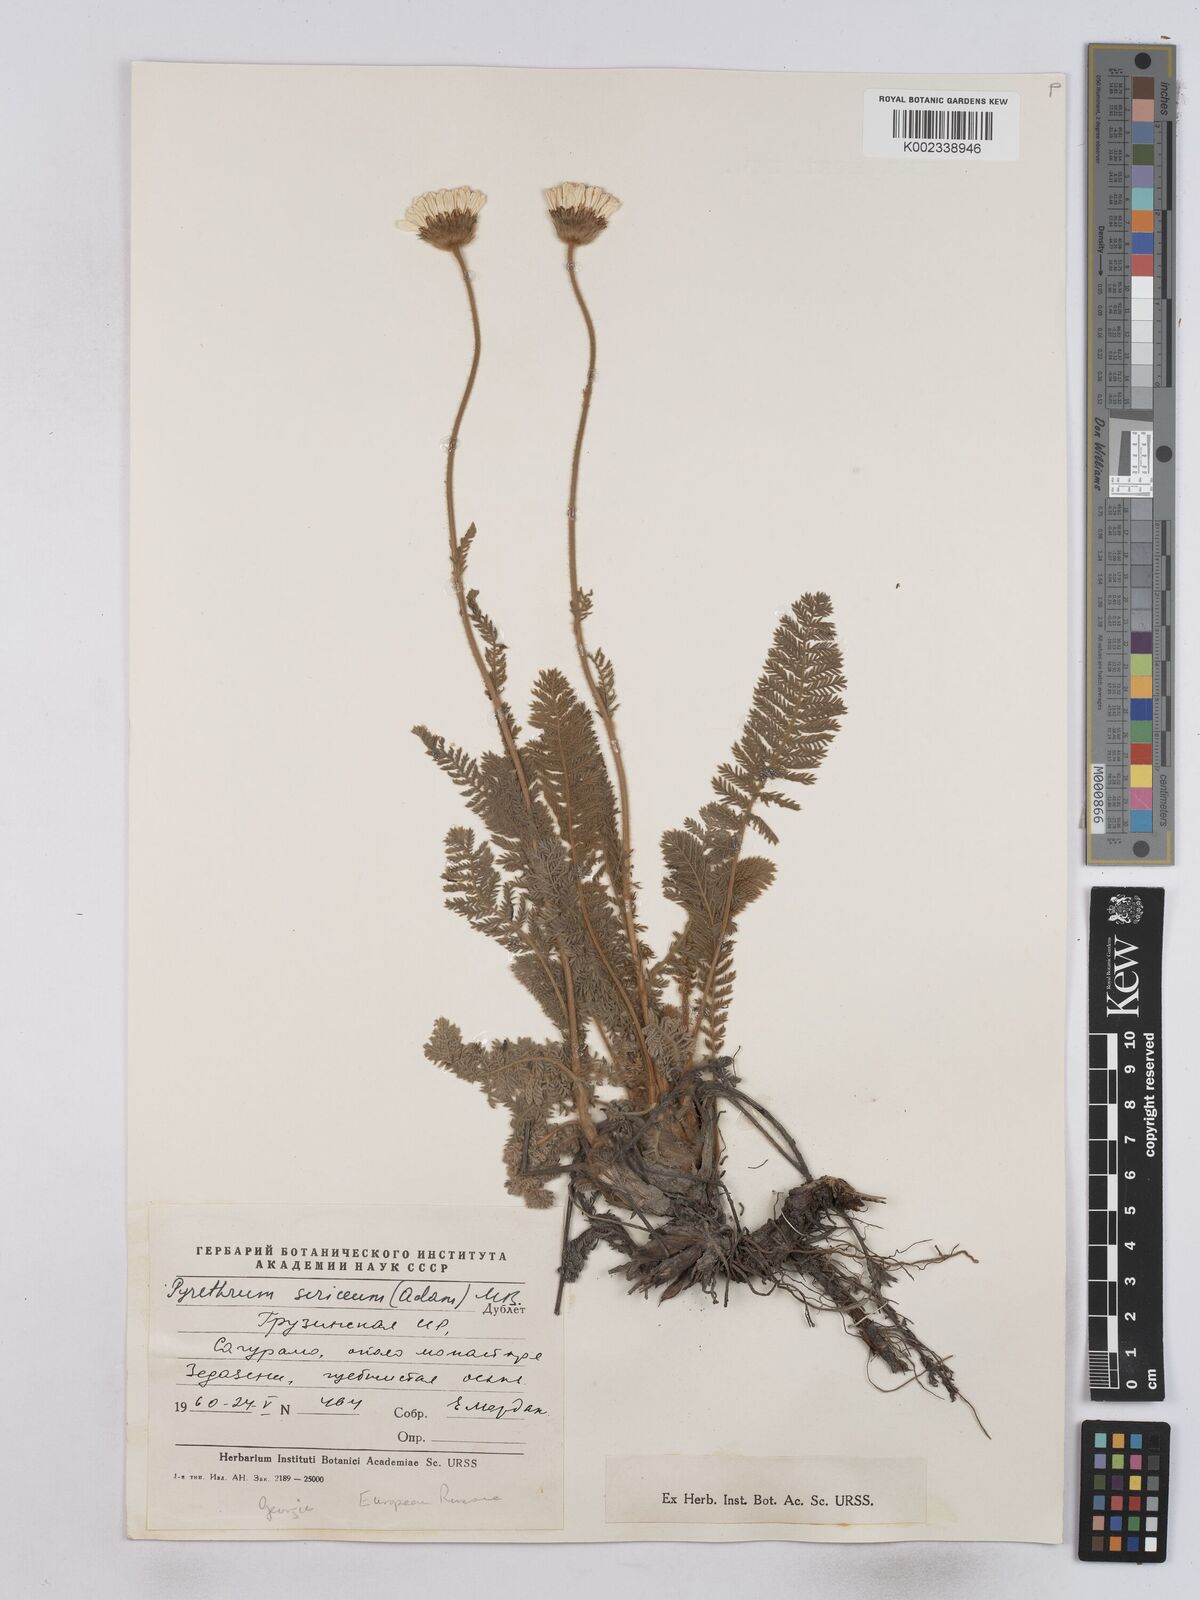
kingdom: Plantae
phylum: Tracheophyta
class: Magnoliopsida
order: Asterales
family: Asteraceae
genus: Tanacetum
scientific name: Tanacetum sericeum
